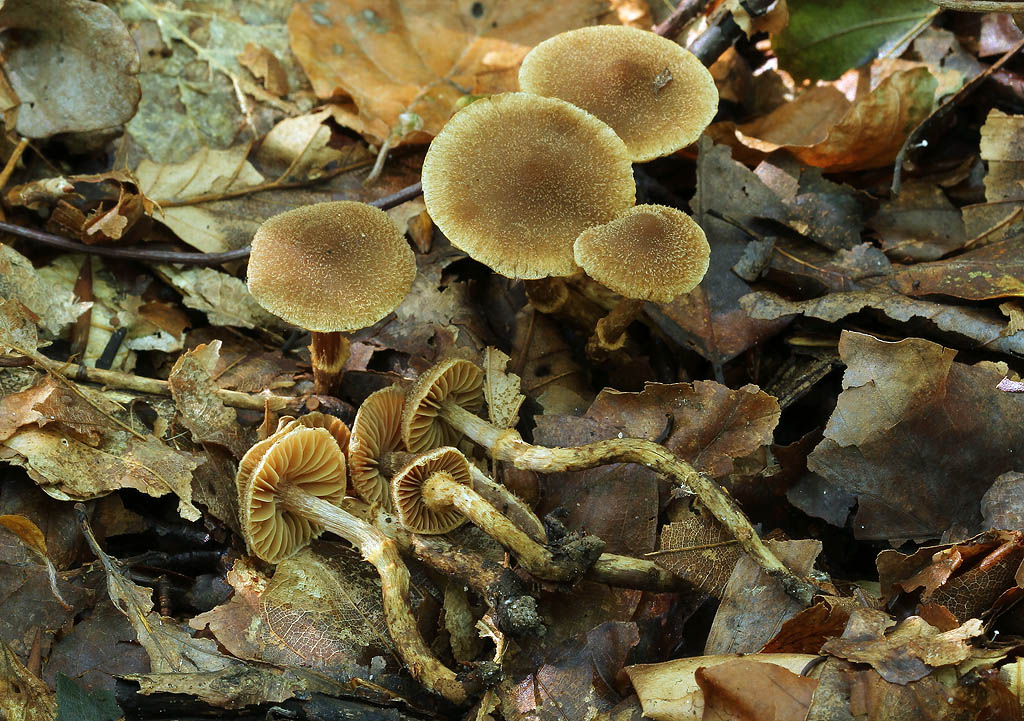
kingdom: Fungi
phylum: Basidiomycota
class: Agaricomycetes
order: Agaricales
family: Cortinariaceae
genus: Cortinarius
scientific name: Cortinarius quercoconicus
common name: agernskål-slørhat
